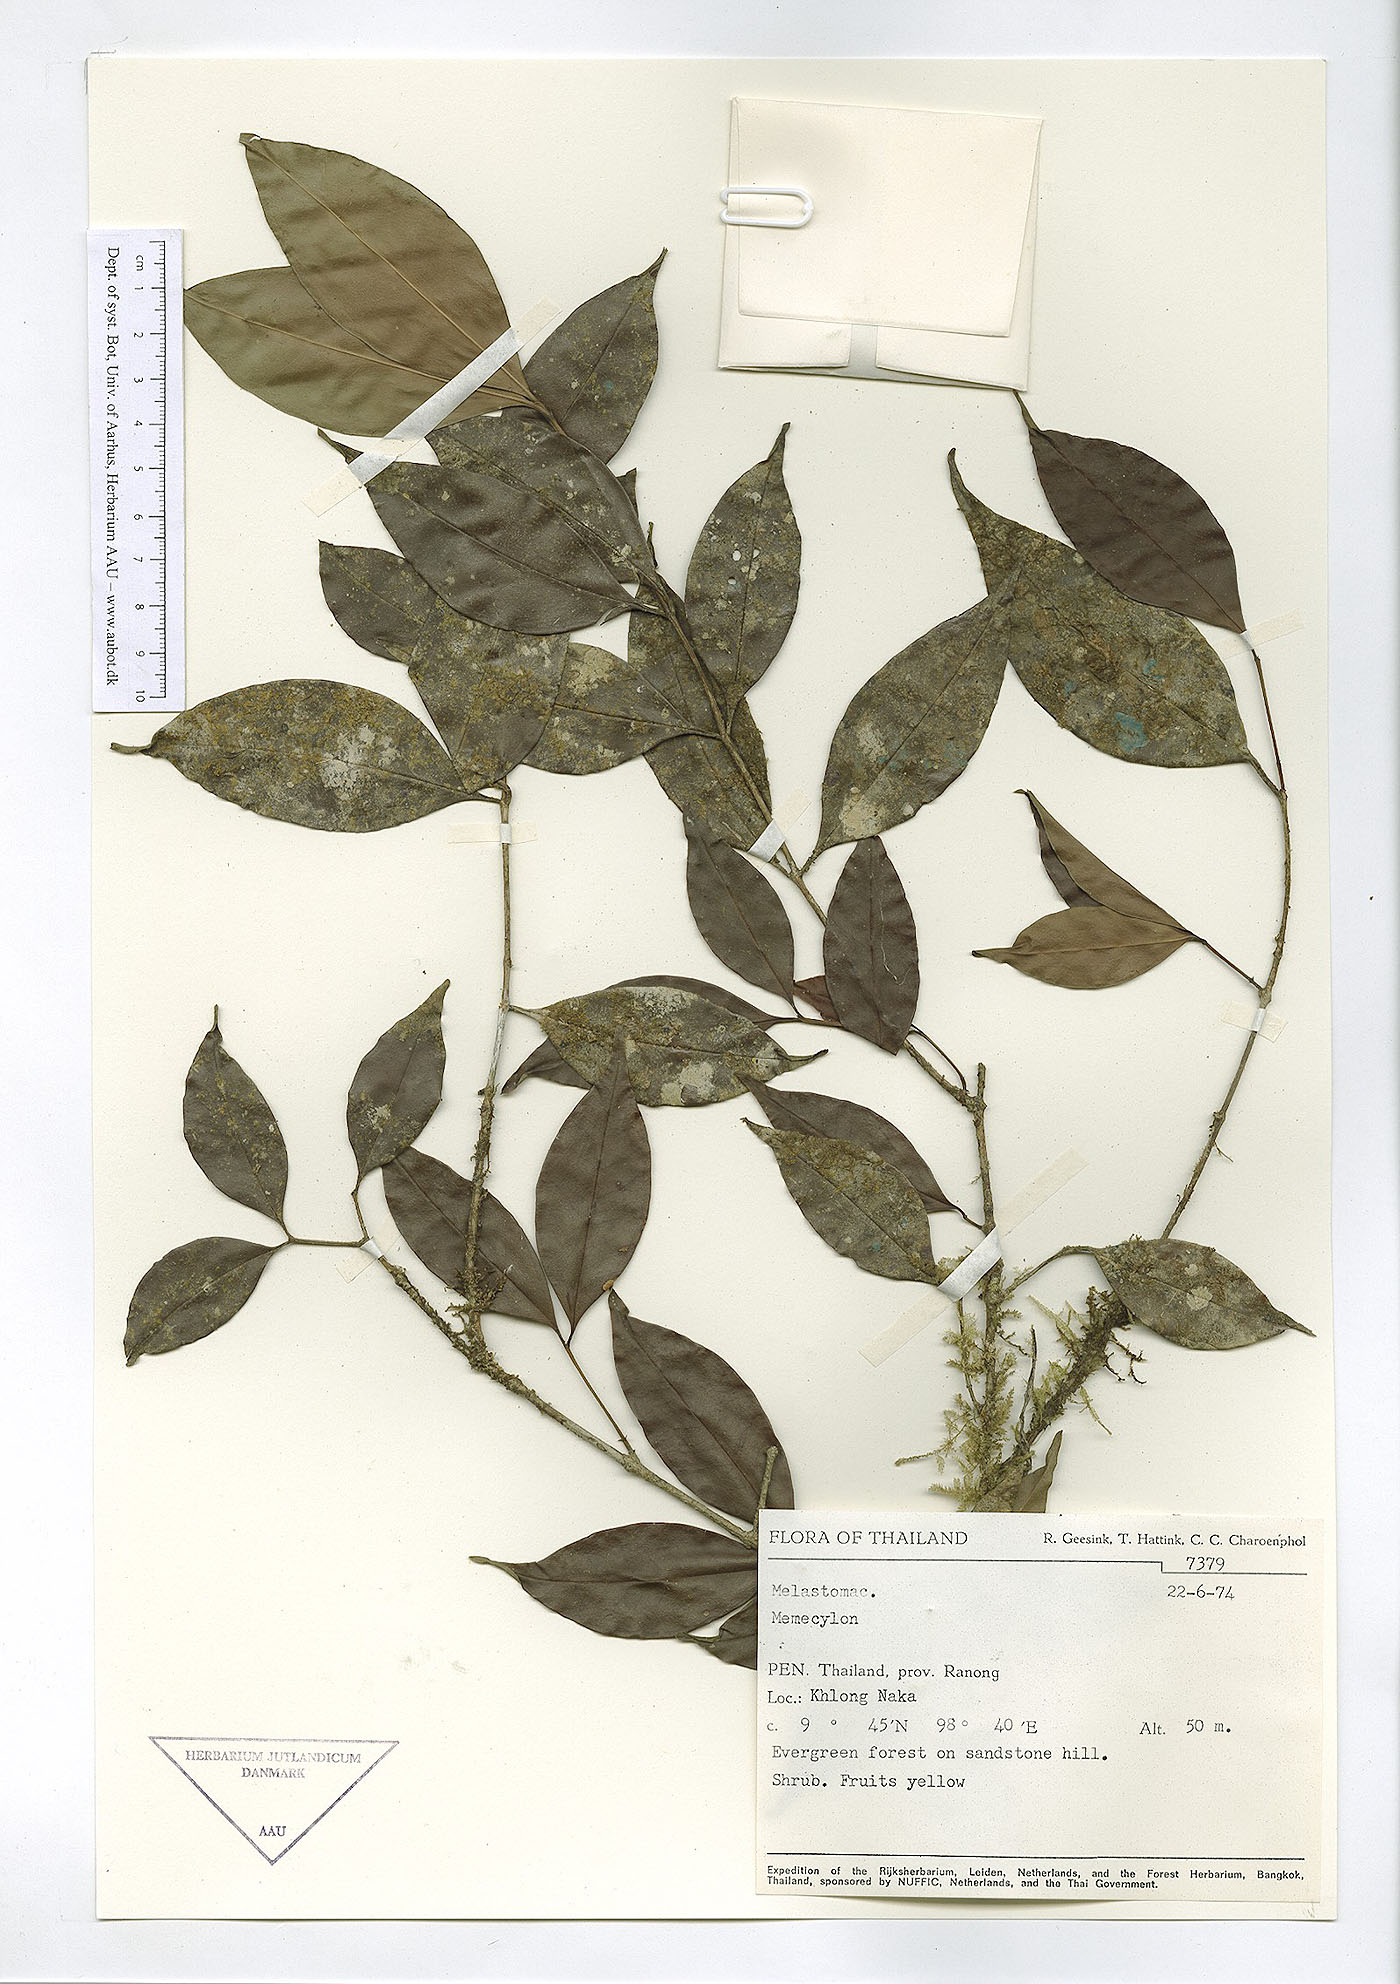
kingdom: Plantae
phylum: Tracheophyta
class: Magnoliopsida
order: Myrtales
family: Melastomataceae
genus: Memecylon
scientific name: Memecylon lilacinum
